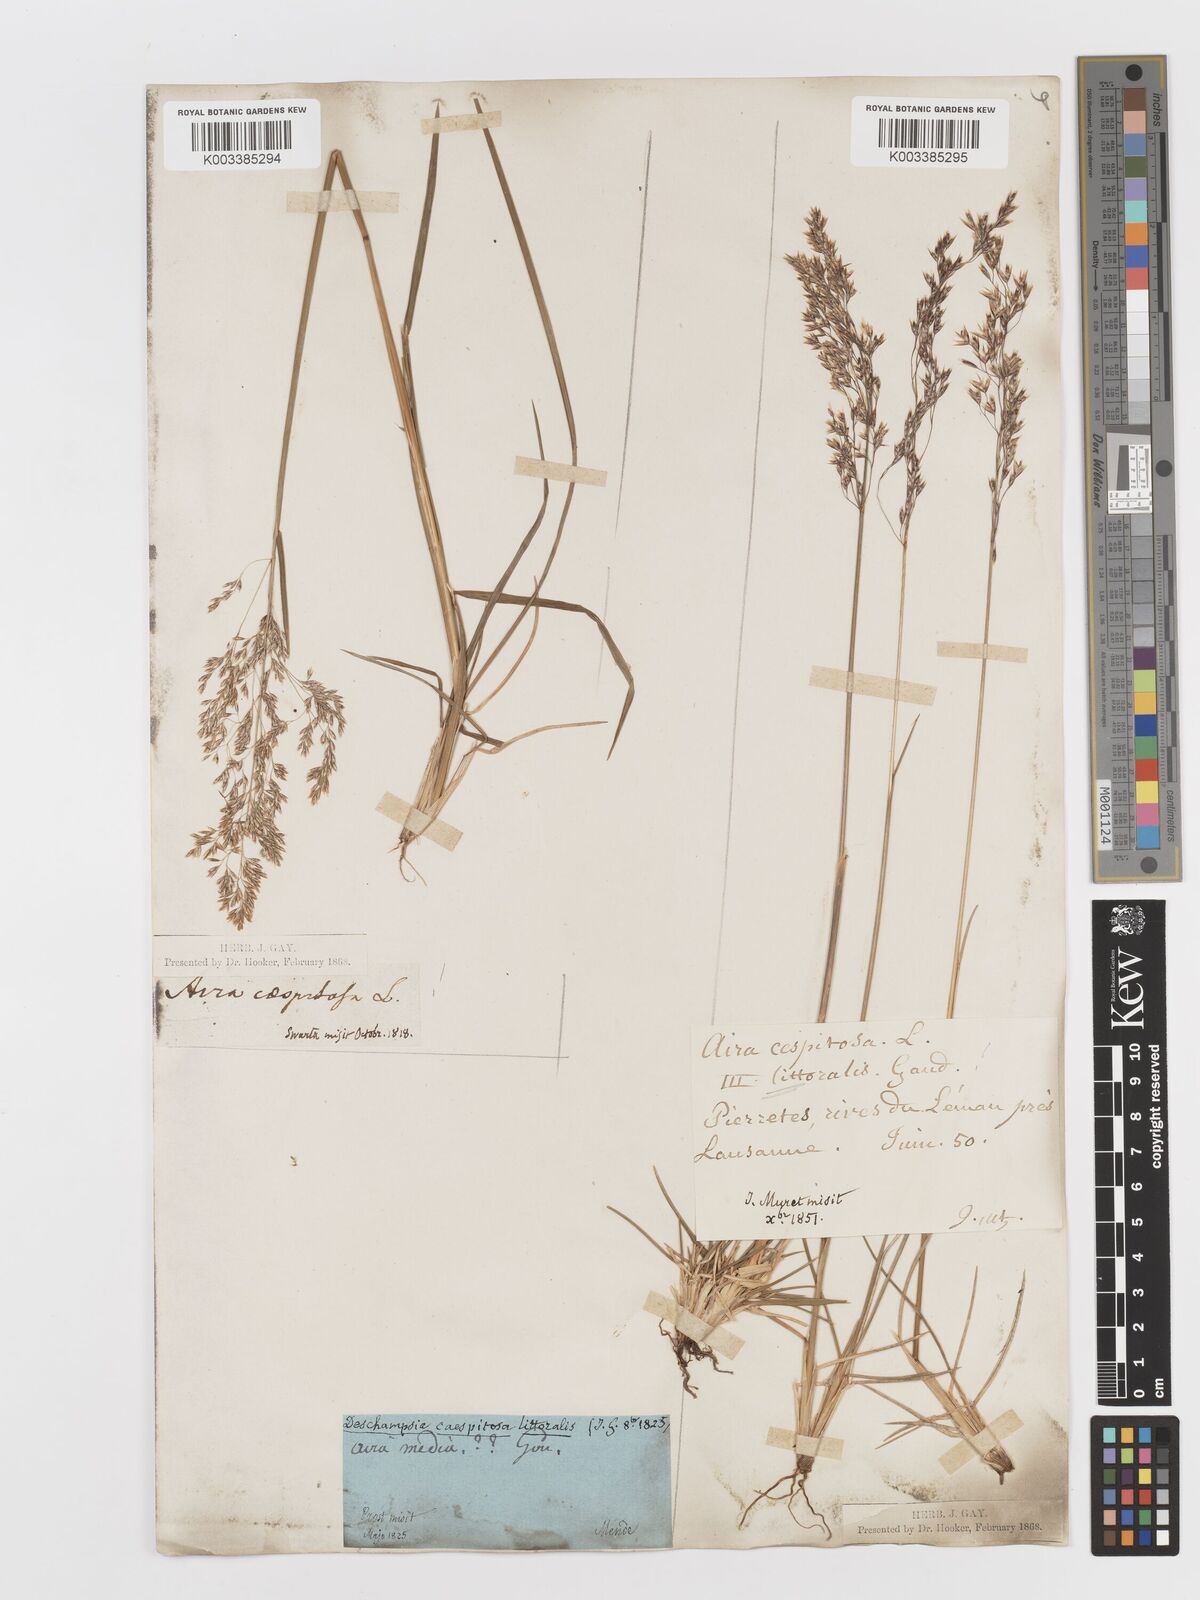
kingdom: Plantae
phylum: Tracheophyta
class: Liliopsida
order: Poales
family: Poaceae
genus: Deschampsia
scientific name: Deschampsia cespitosa
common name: Tufted hair-grass
